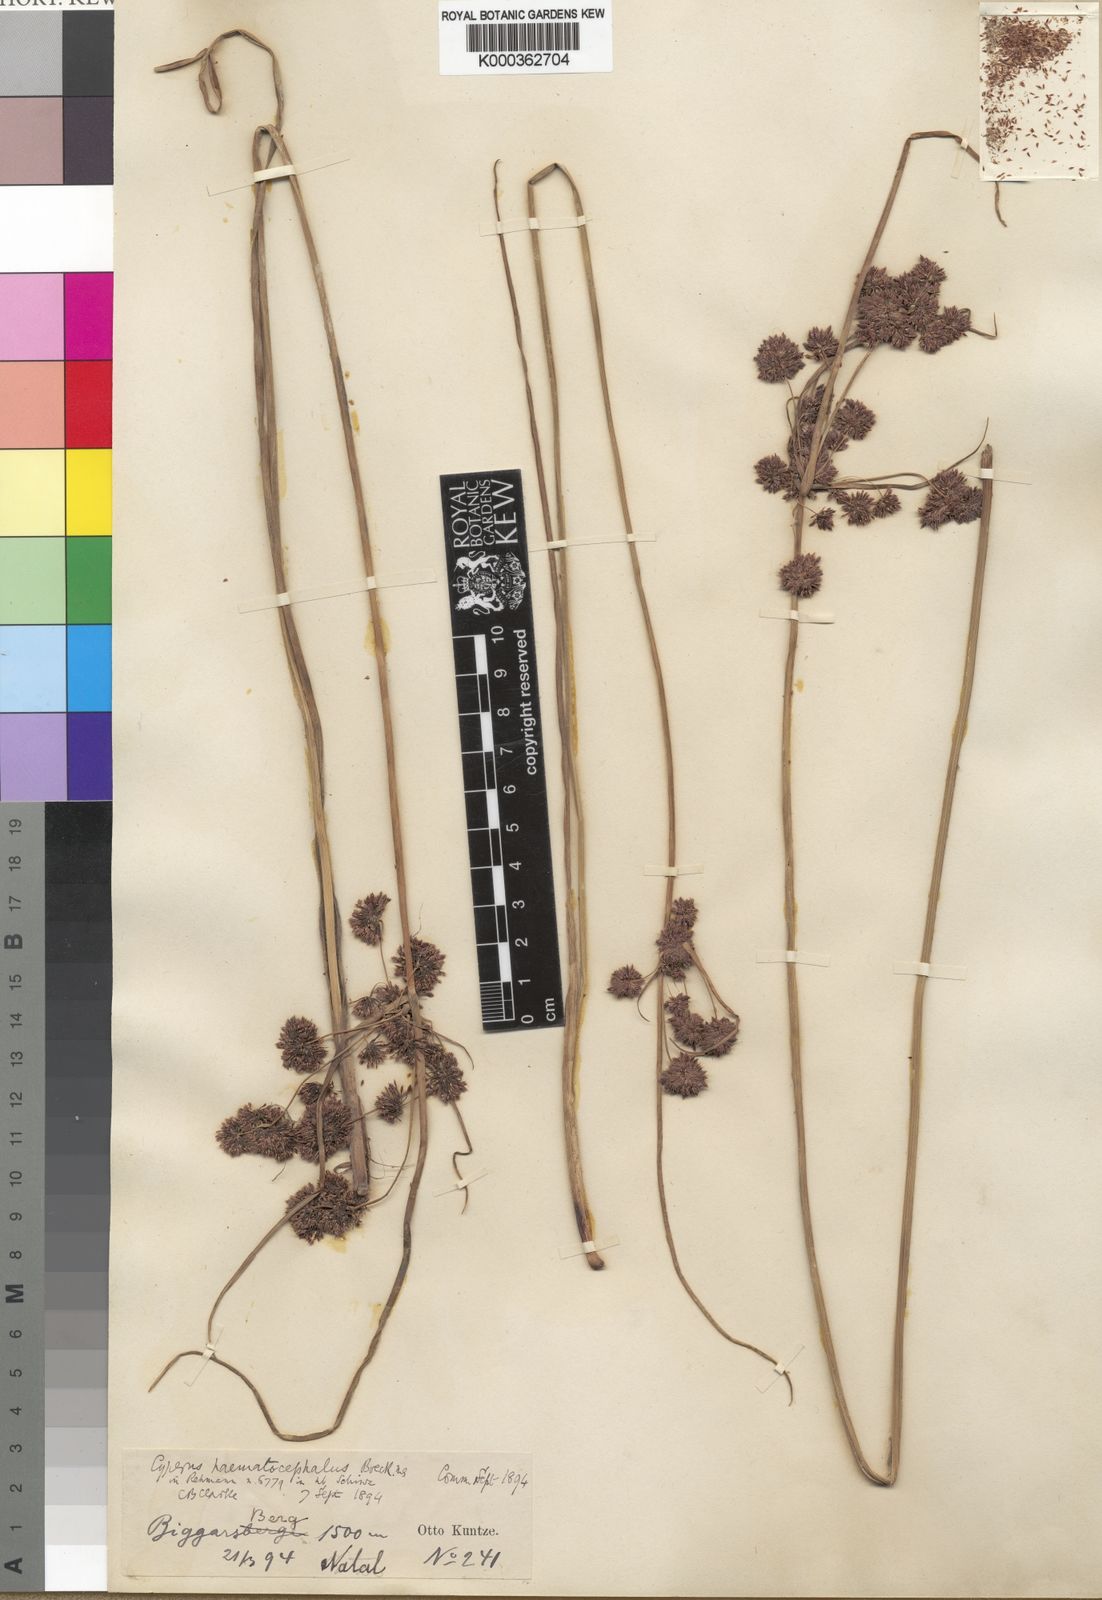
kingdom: Plantae
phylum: Tracheophyta
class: Liliopsida
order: Poales
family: Cyperaceae
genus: Cyperus
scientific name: Cyperus haematocephalus
